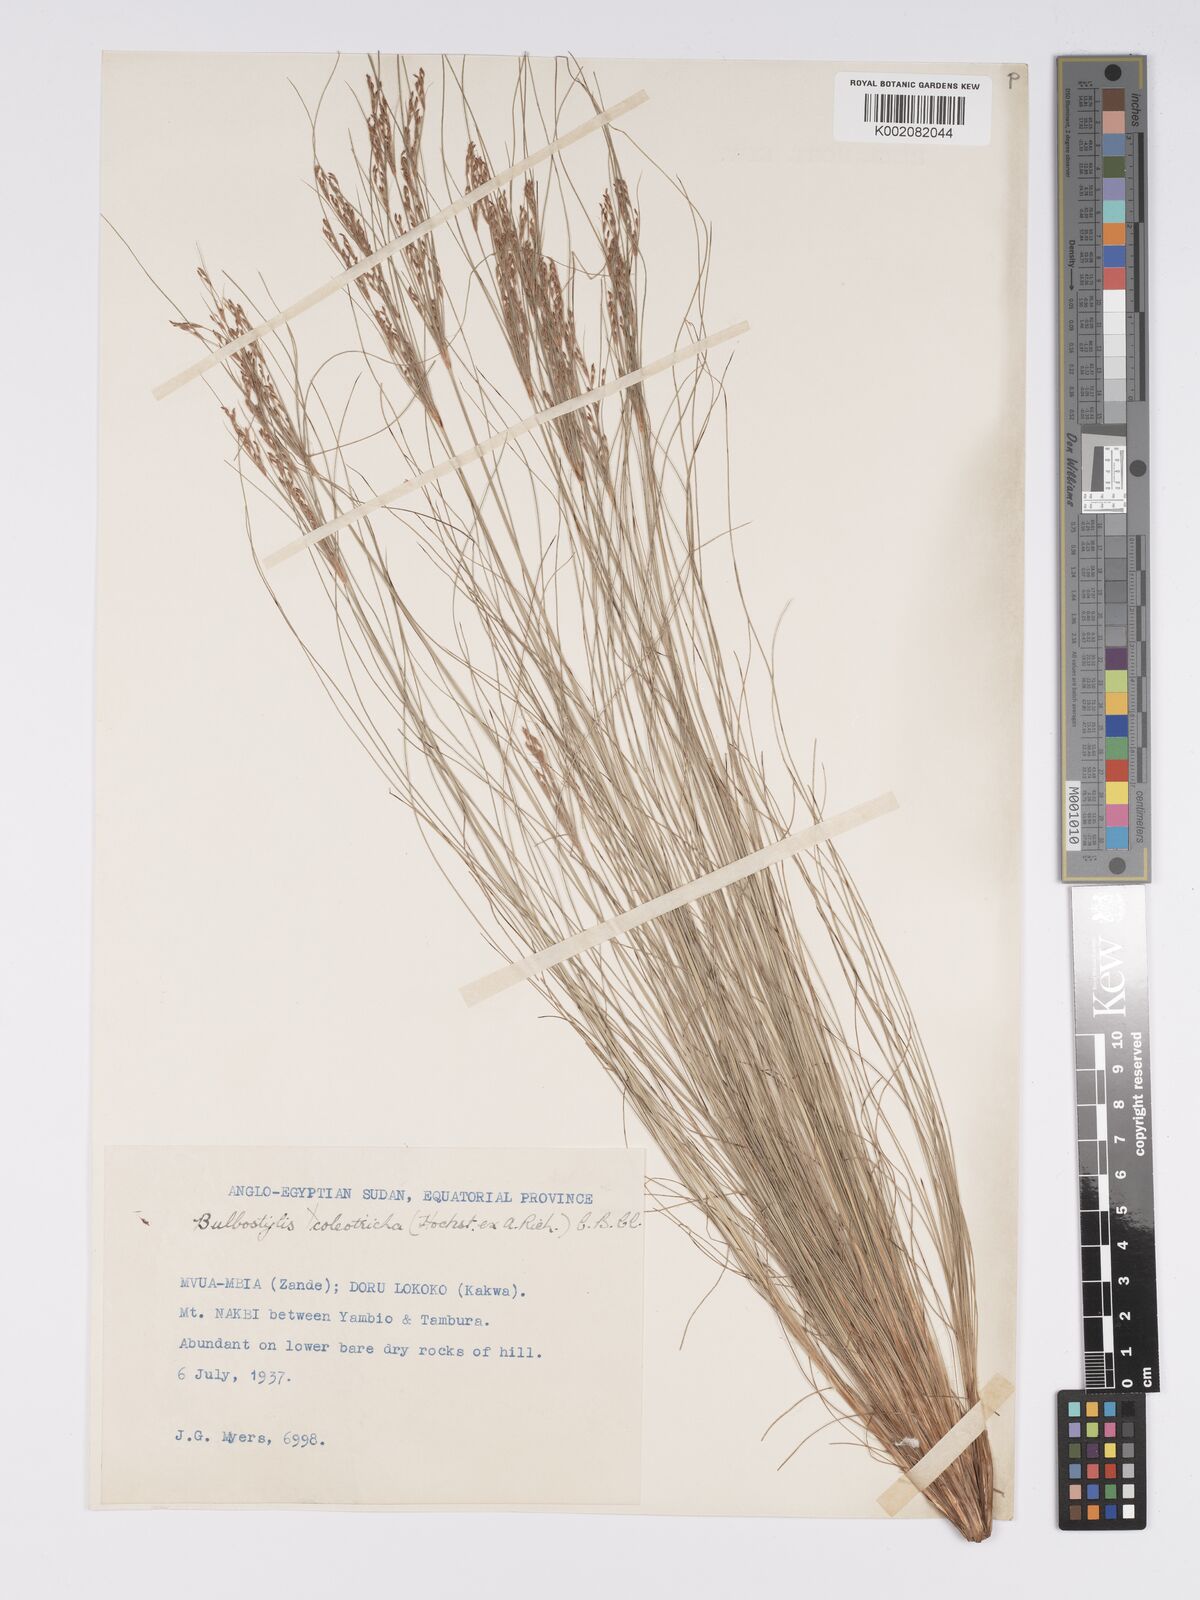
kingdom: Plantae
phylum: Tracheophyta
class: Liliopsida
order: Poales
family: Cyperaceae
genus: Bulbostylis
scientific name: Bulbostylis abortiva
